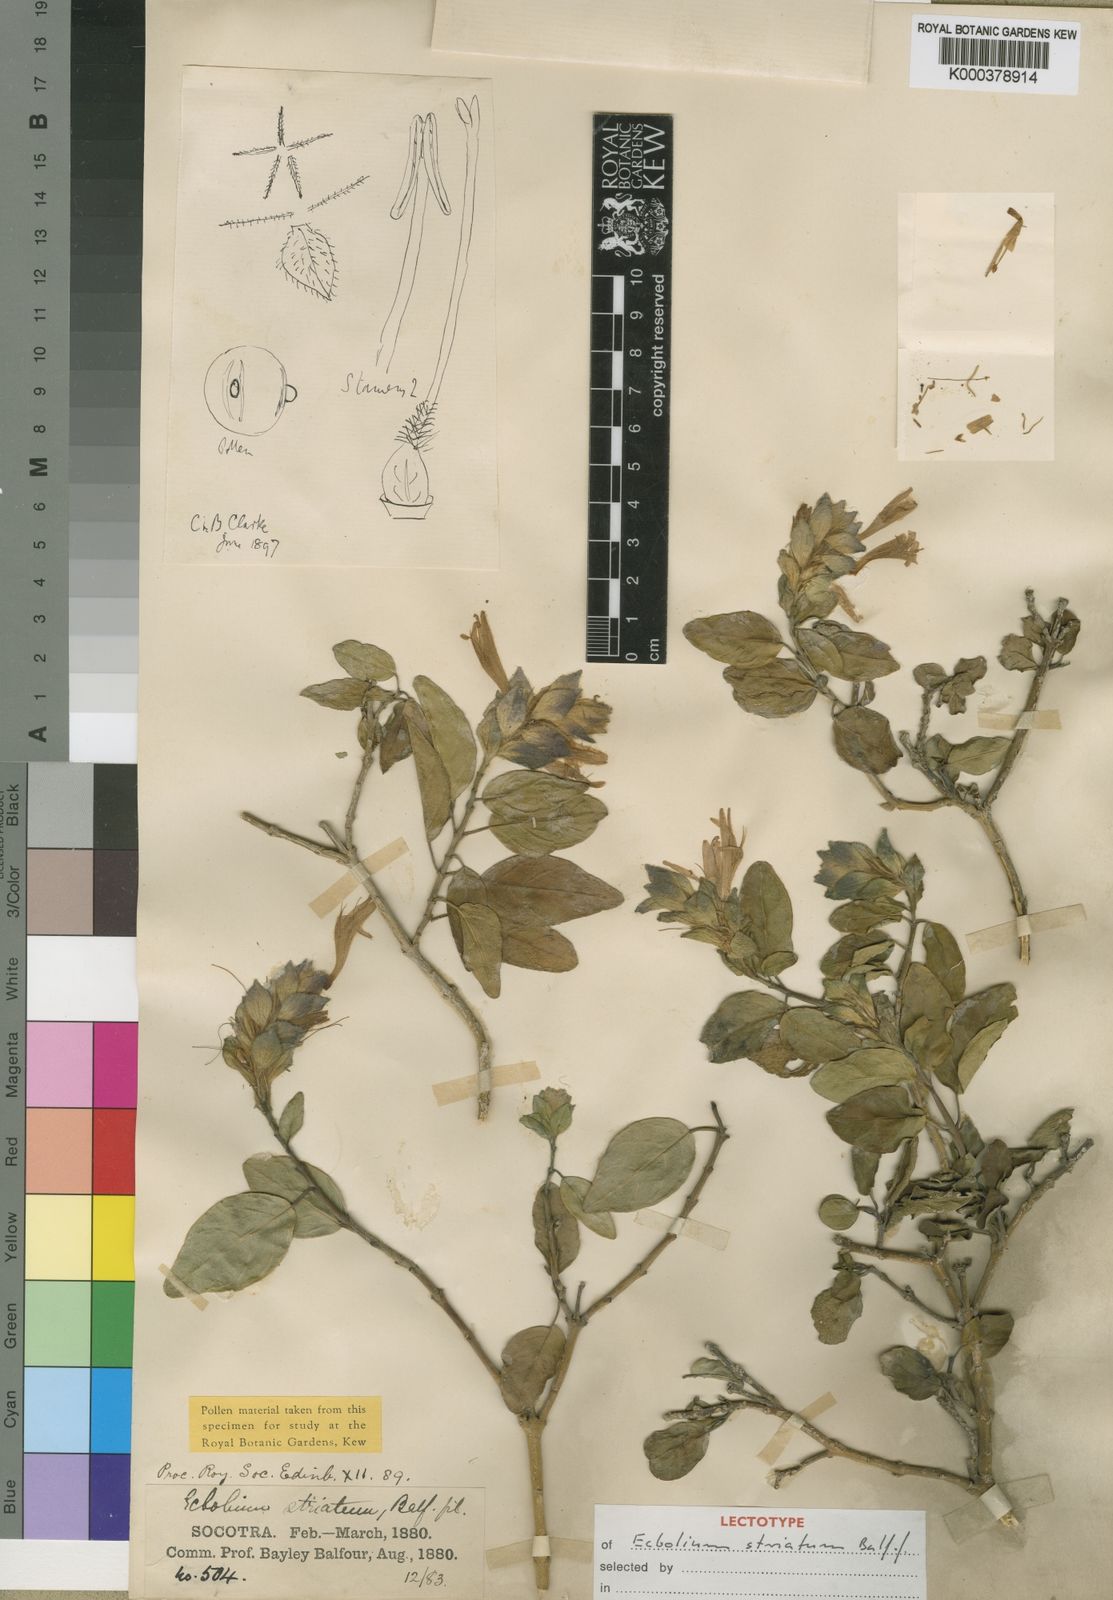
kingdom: Plantae
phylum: Tracheophyta
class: Magnoliopsida
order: Lamiales
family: Acanthaceae
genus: Chorisochora
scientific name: Chorisochora striata
